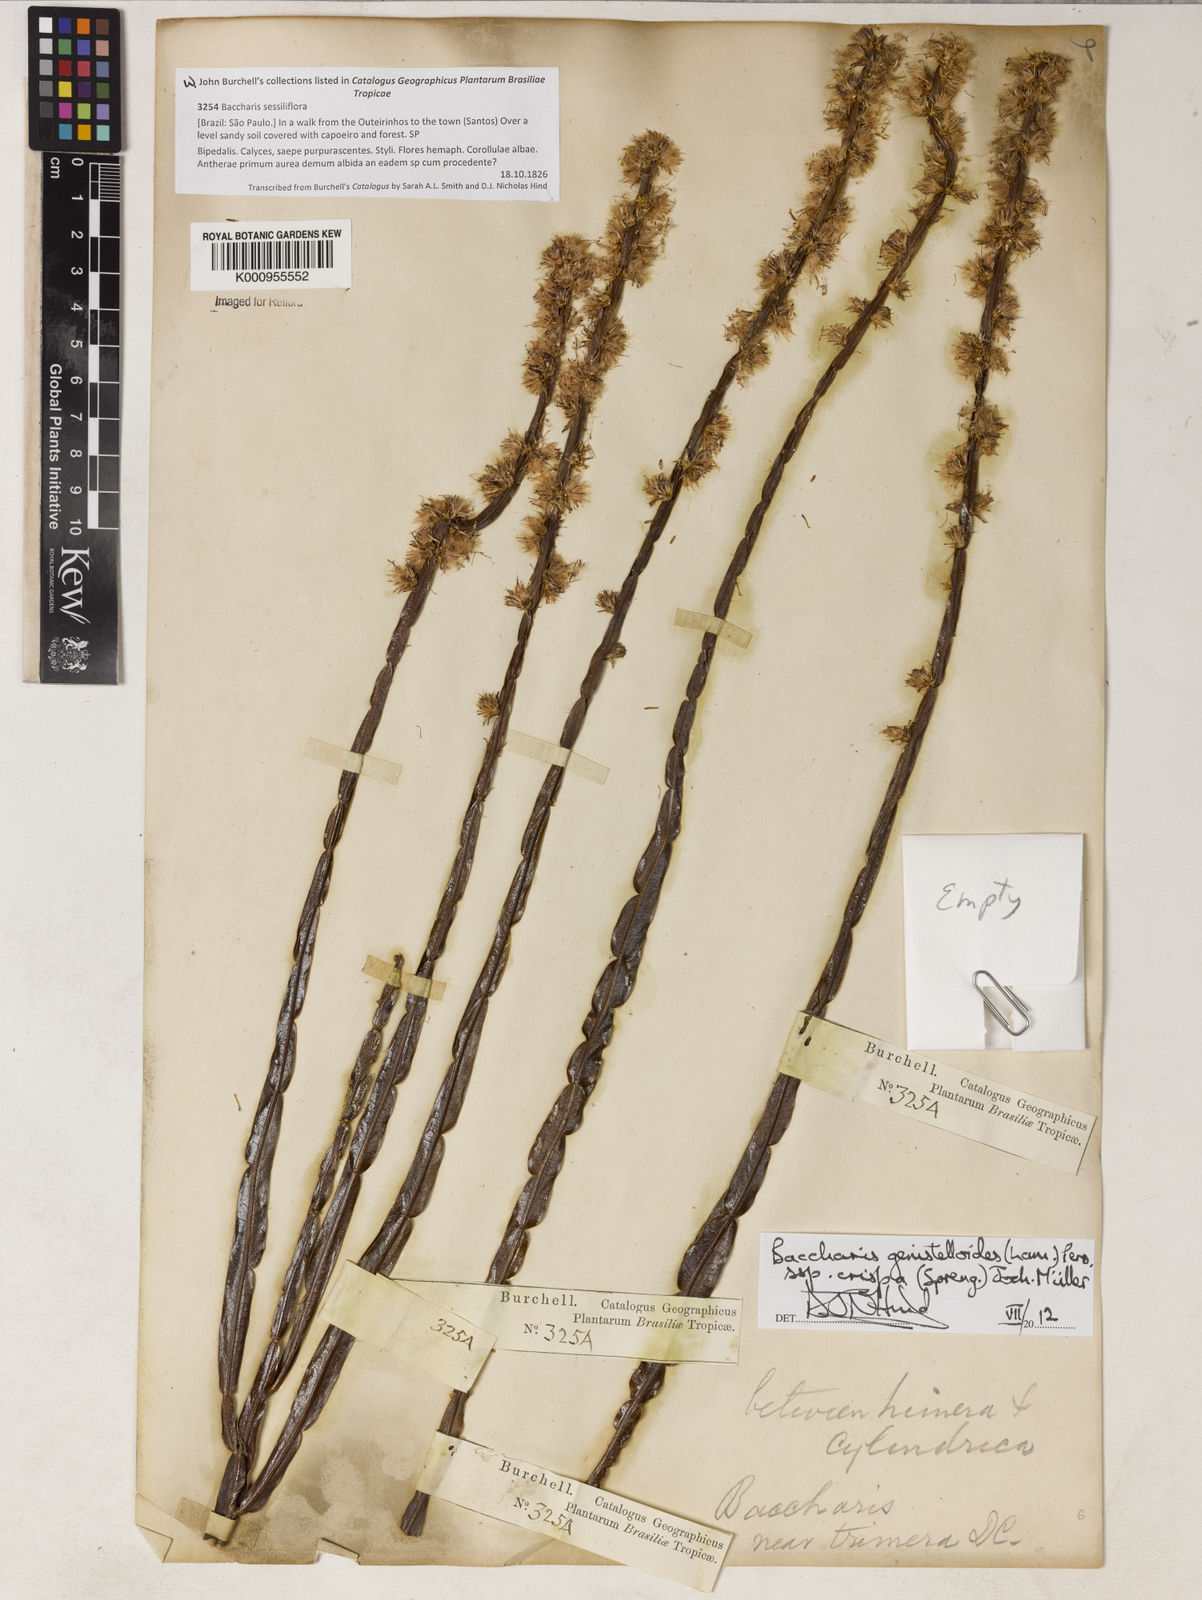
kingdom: Plantae
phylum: Tracheophyta
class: Magnoliopsida
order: Asterales
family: Asteraceae
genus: Baccharis
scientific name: Baccharis genistelloides
